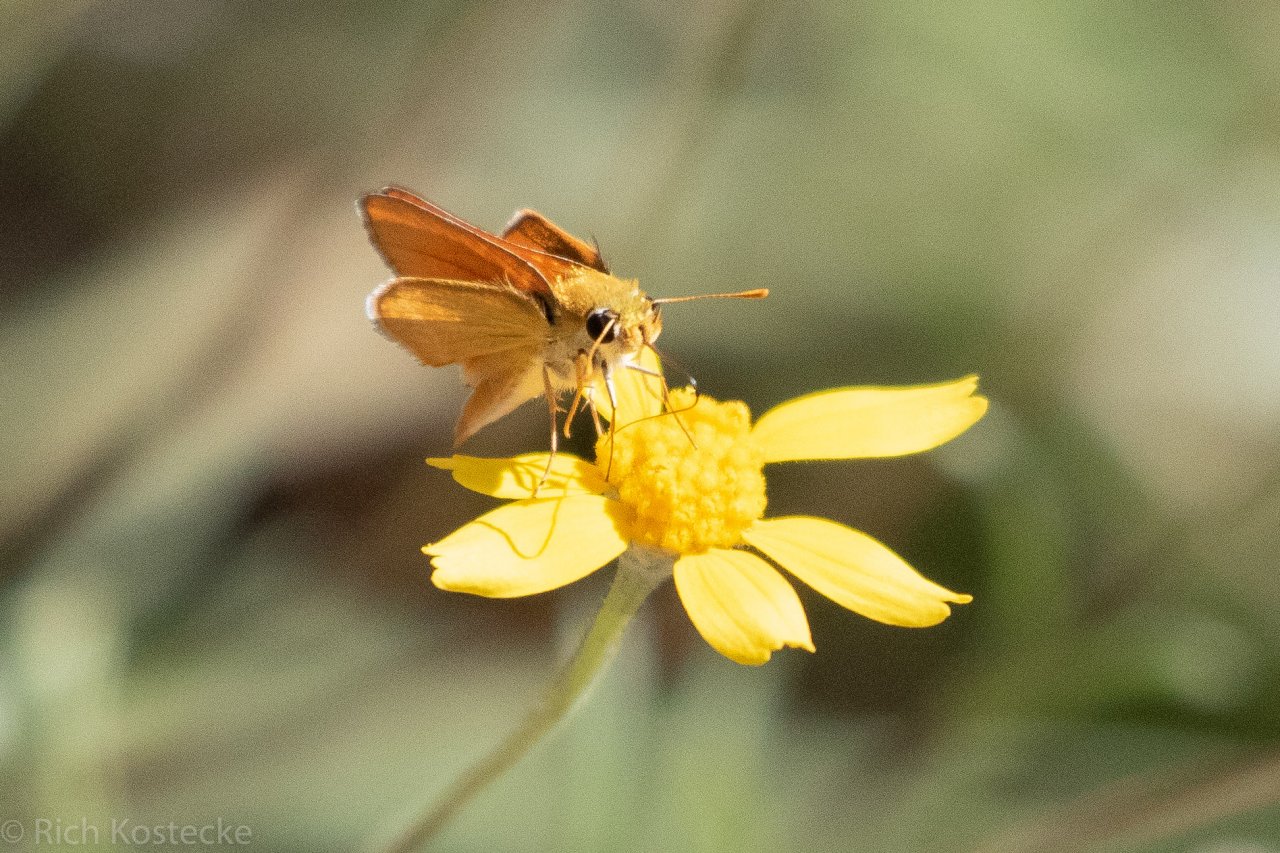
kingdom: Animalia
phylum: Arthropoda
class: Insecta
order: Lepidoptera
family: Hesperiidae
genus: Copaeodes
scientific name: Copaeodes aurantiaca
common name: Orange Skipperling
